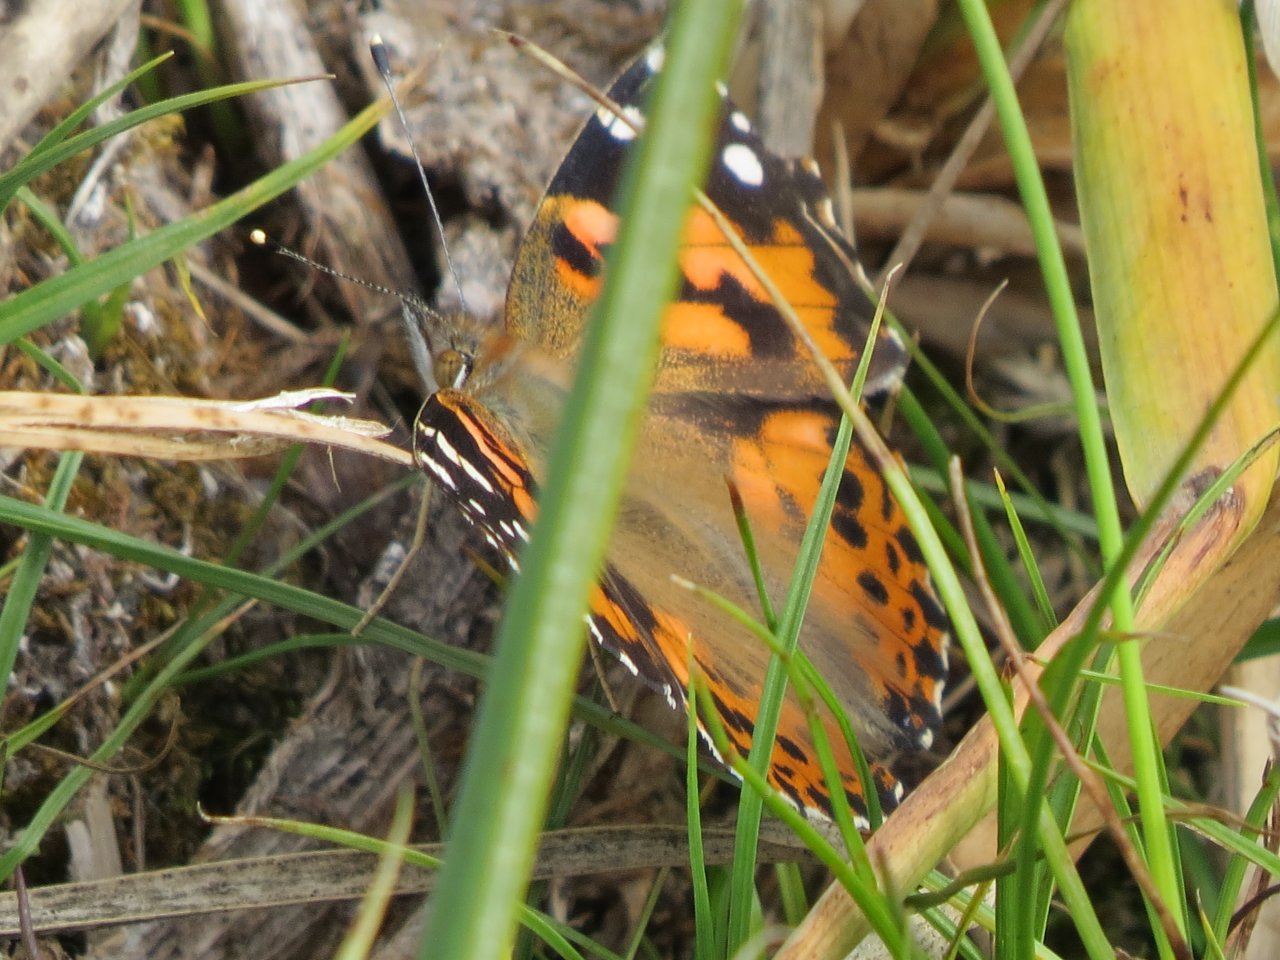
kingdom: Animalia
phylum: Arthropoda
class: Insecta
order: Lepidoptera
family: Nymphalidae
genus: Vanessa
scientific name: Vanessa cardui
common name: Painted Lady
